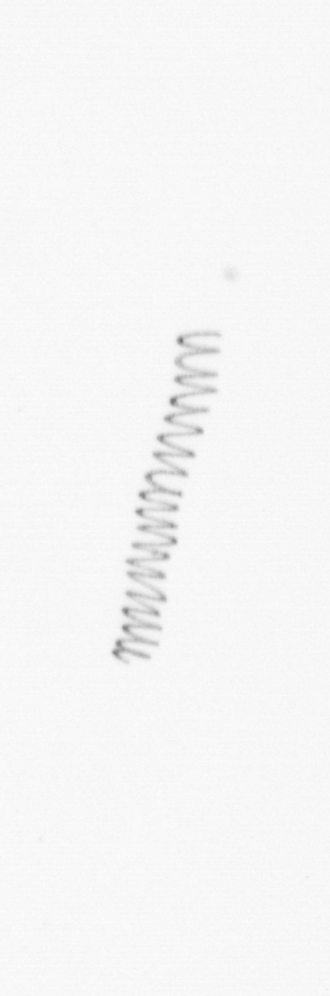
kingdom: Chromista
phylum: Ochrophyta
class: Bacillariophyceae
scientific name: Bacillariophyceae
